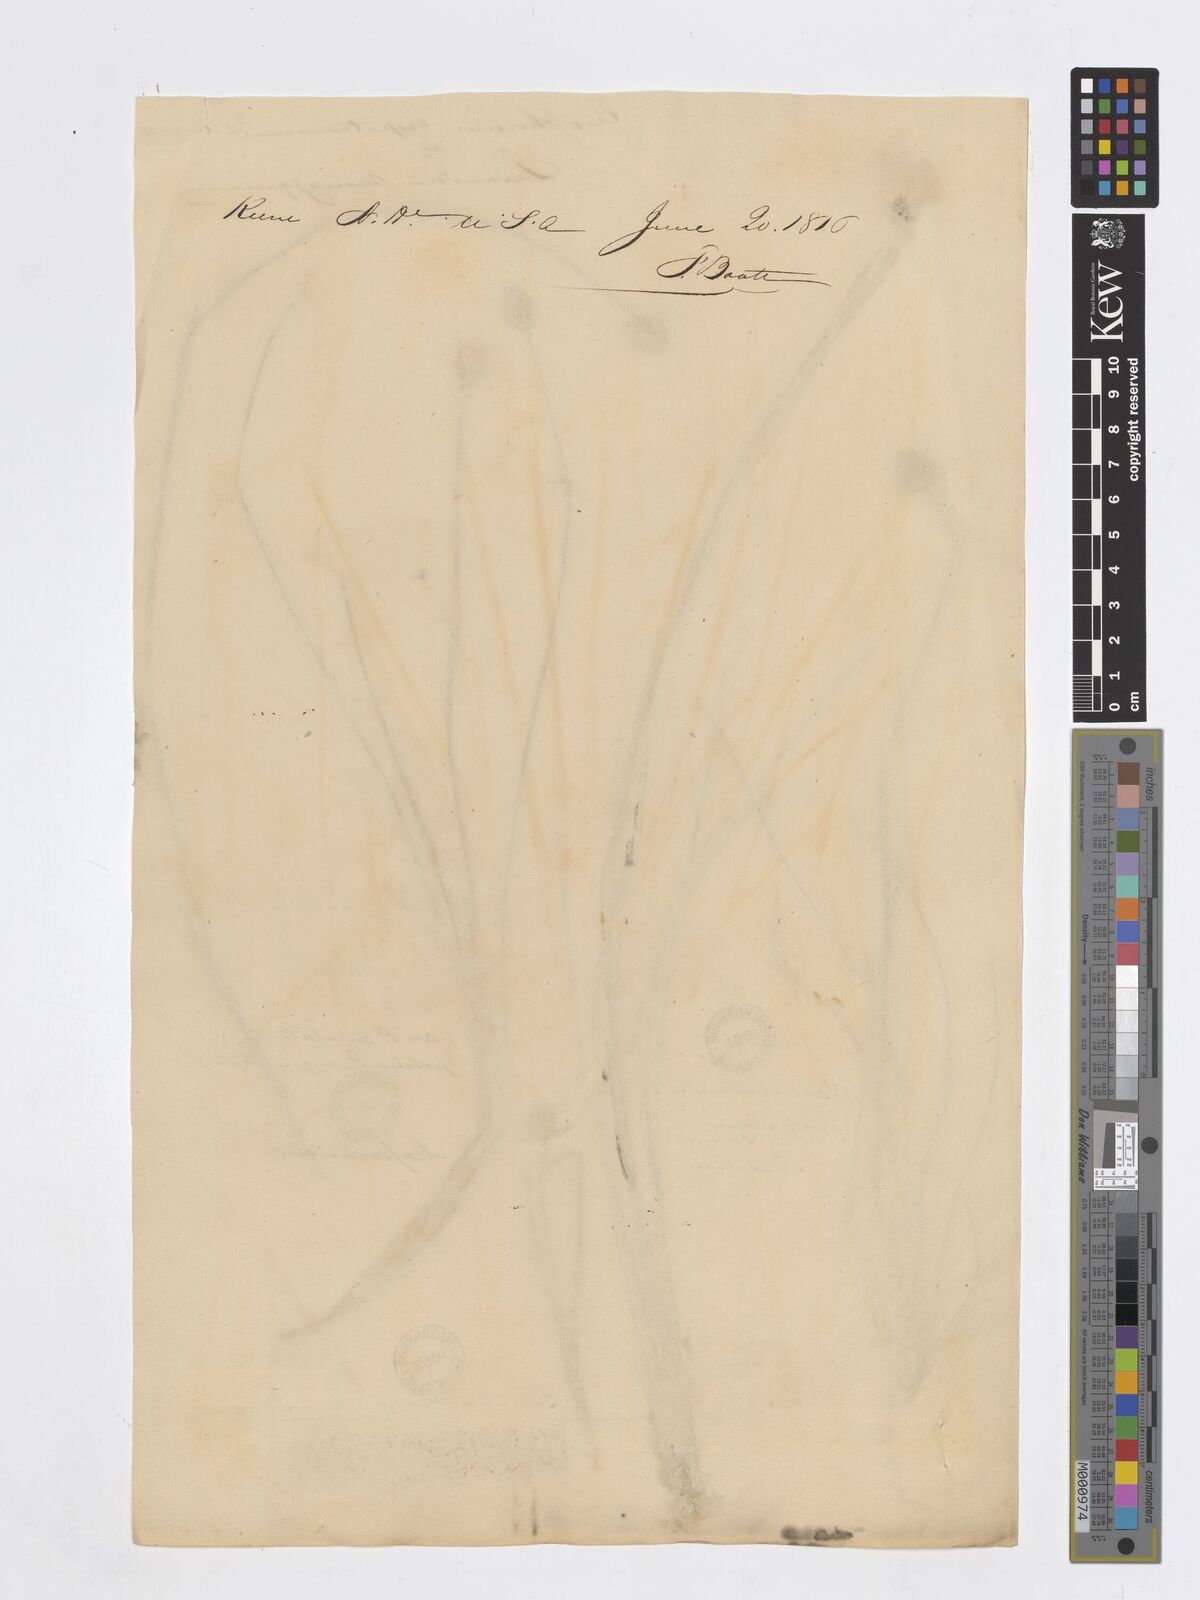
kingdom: Plantae
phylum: Tracheophyta
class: Liliopsida
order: Poales
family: Cyperaceae
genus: Eriophorum
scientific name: Eriophorum vaginatum
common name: Hare's-tail cottongrass
